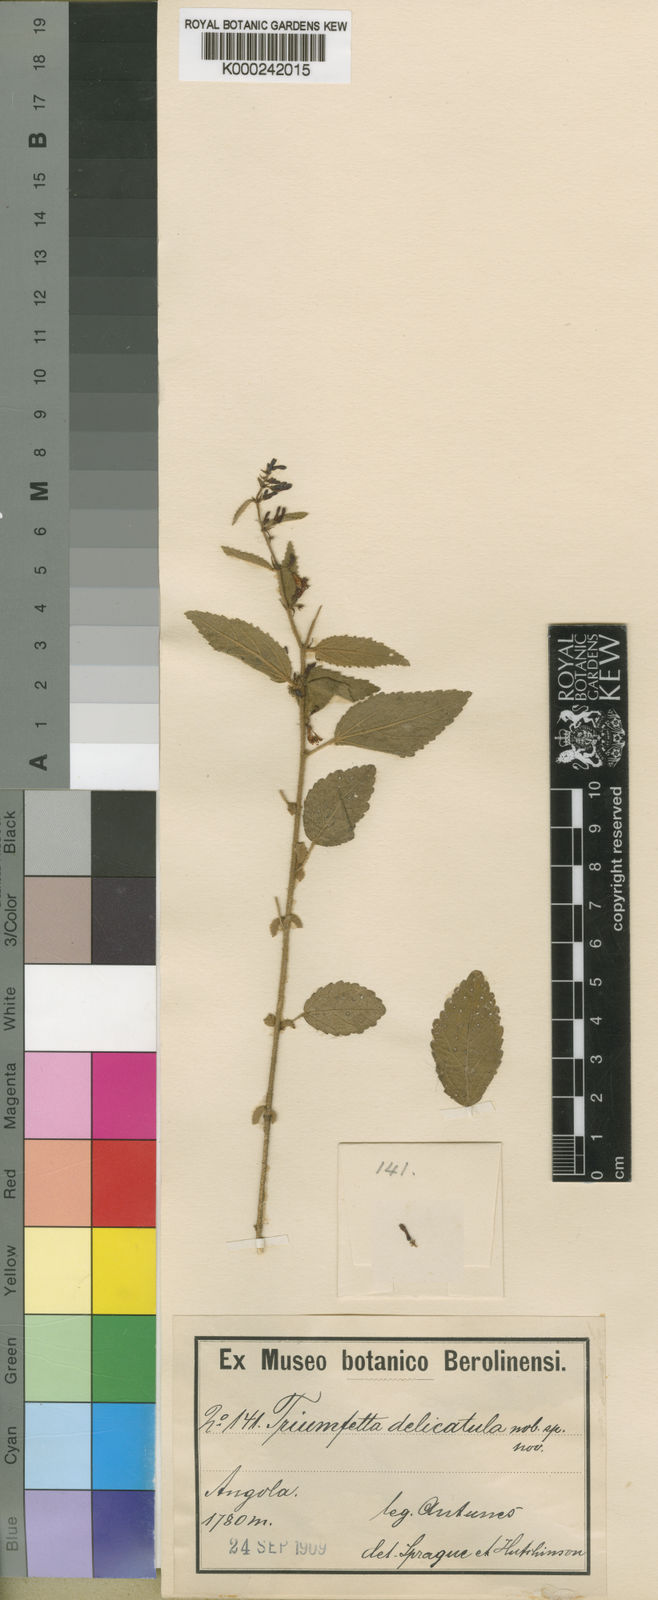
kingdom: Plantae
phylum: Tracheophyta
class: Magnoliopsida
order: Malvales
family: Malvaceae
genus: Triumfetta
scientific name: Triumfetta delicatula
